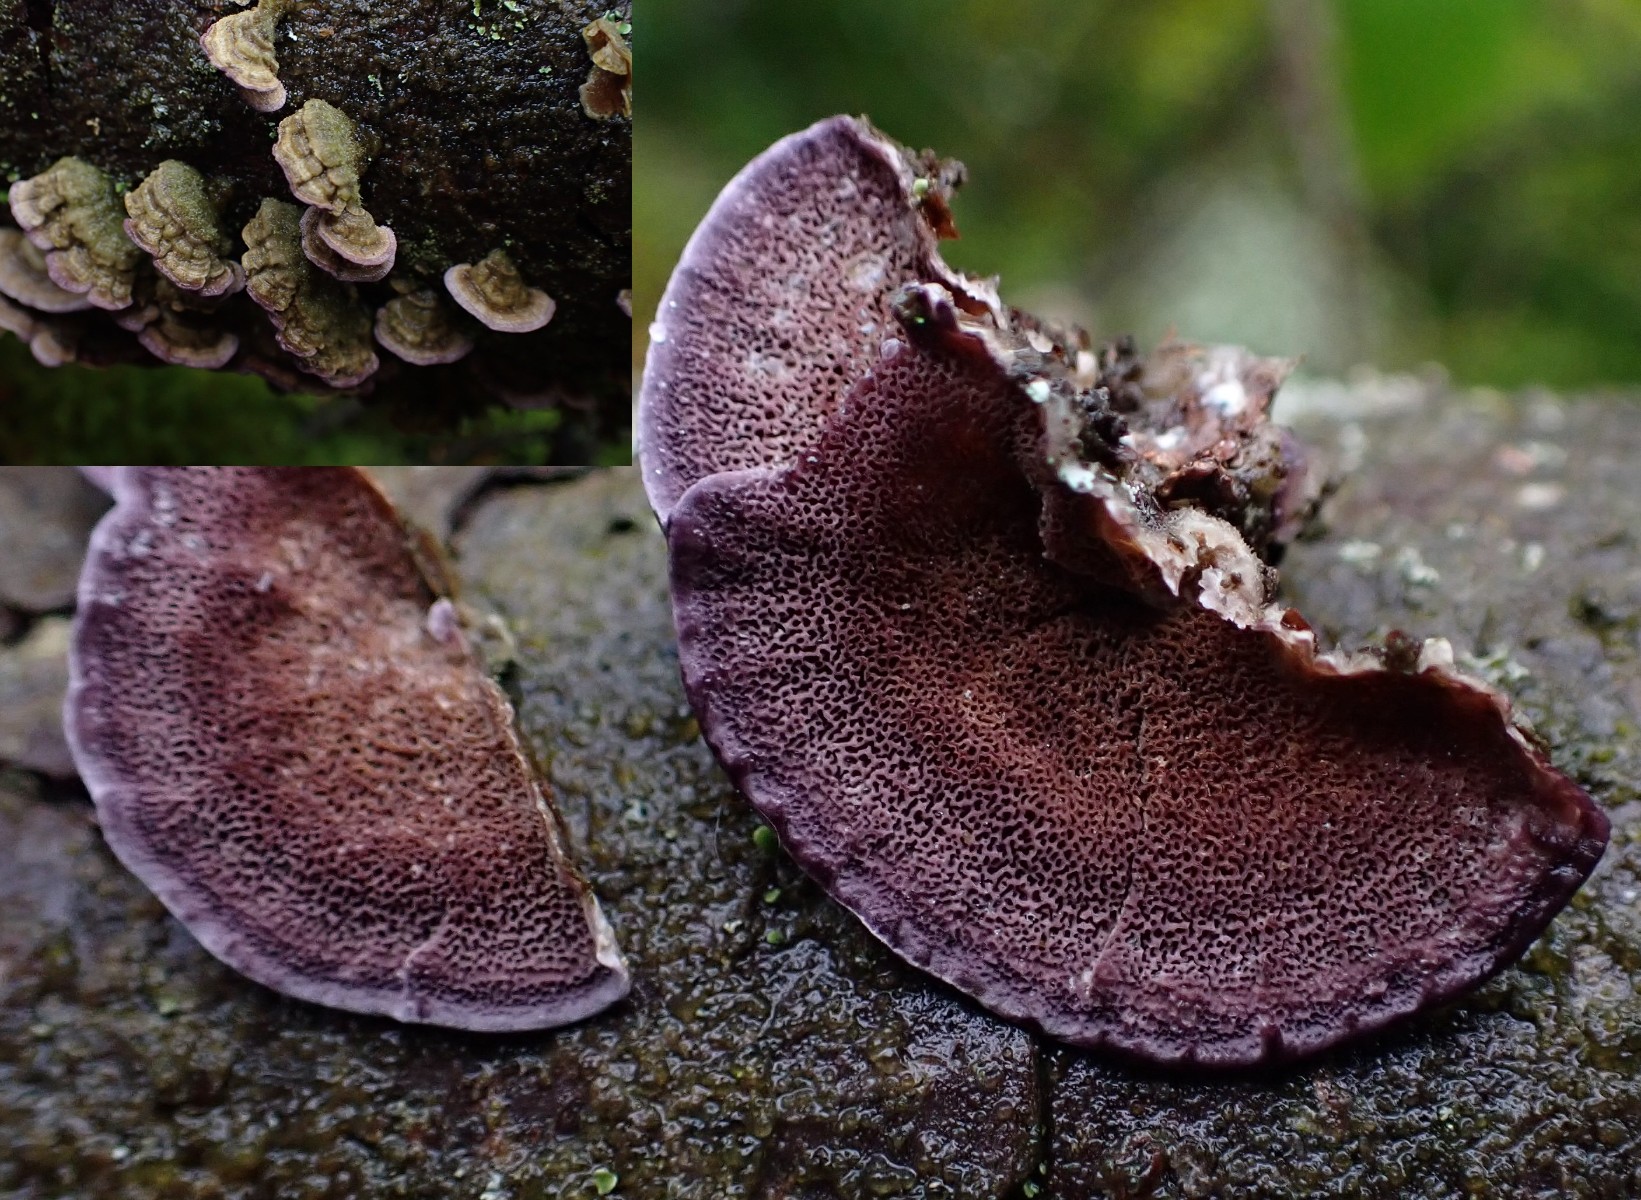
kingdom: Fungi
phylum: Basidiomycota
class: Agaricomycetes
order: Hymenochaetales
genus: Trichaptum
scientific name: Trichaptum abietinum
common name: almindelig violporesvamp
